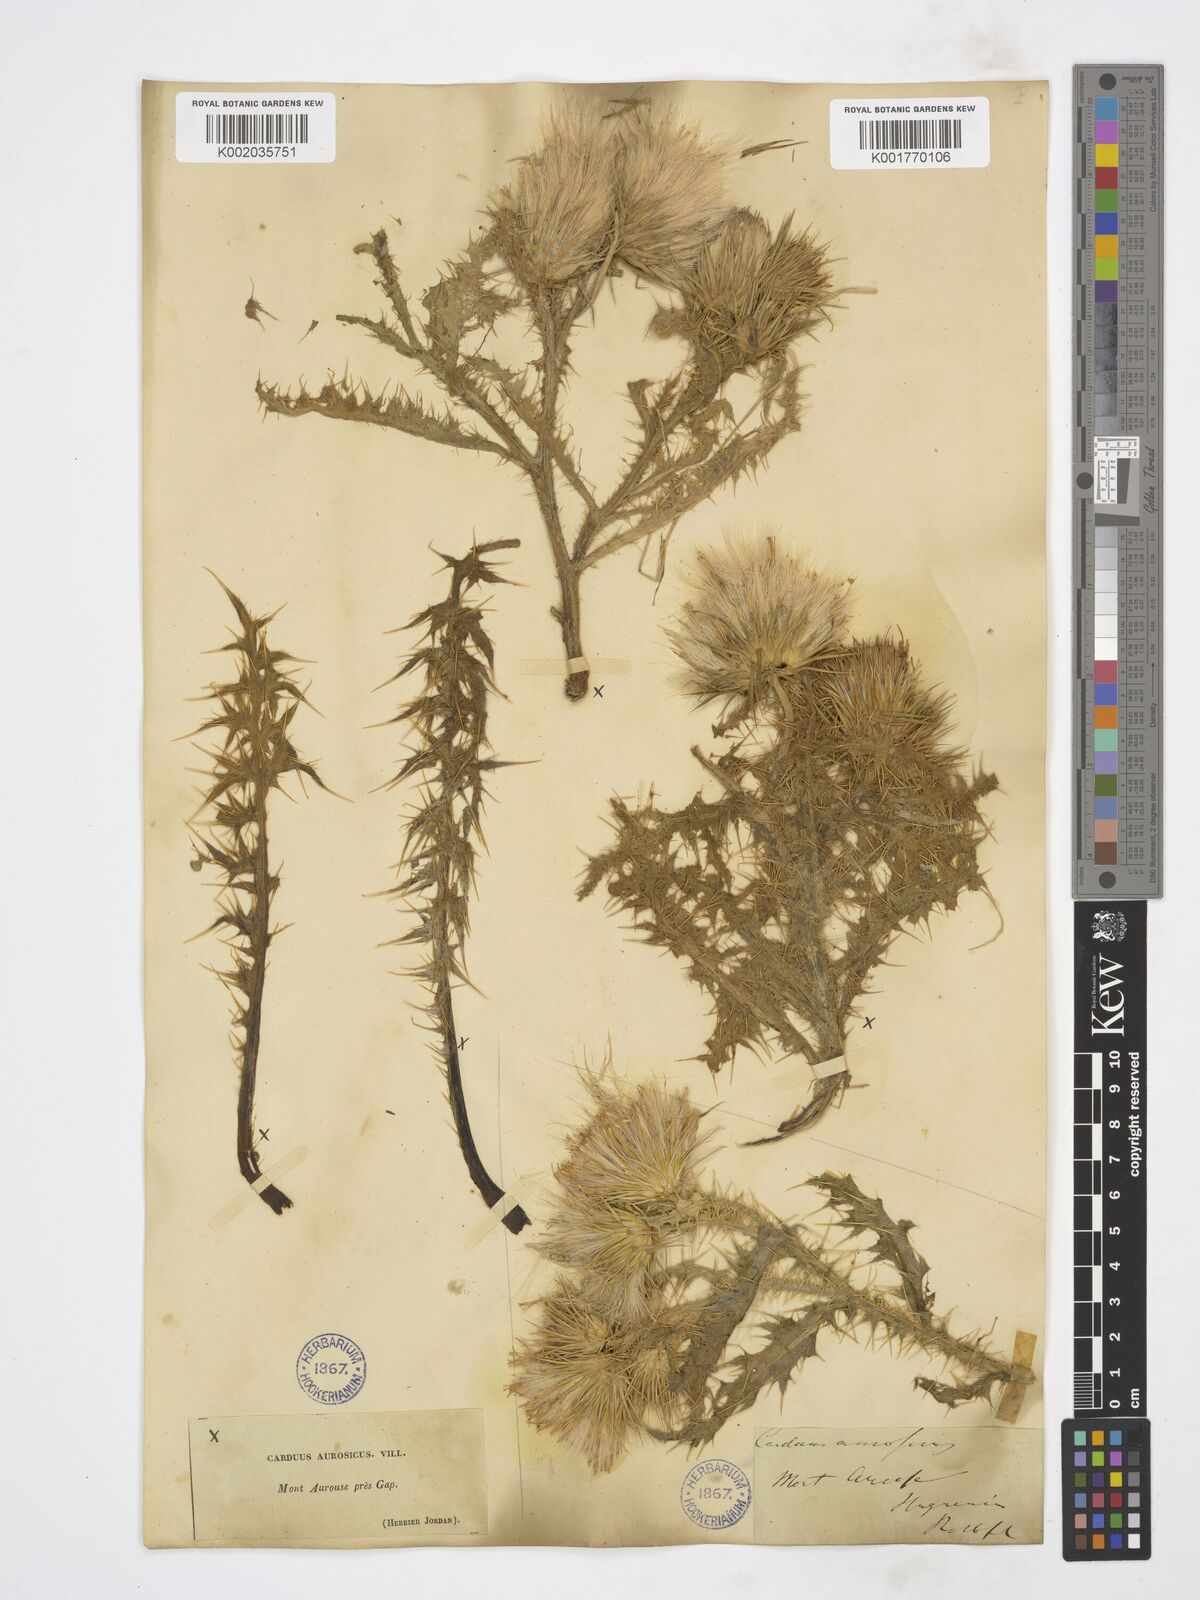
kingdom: Plantae
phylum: Tracheophyta
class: Magnoliopsida
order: Asterales
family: Asteraceae
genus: Carduus
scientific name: Carduus aurosicus
